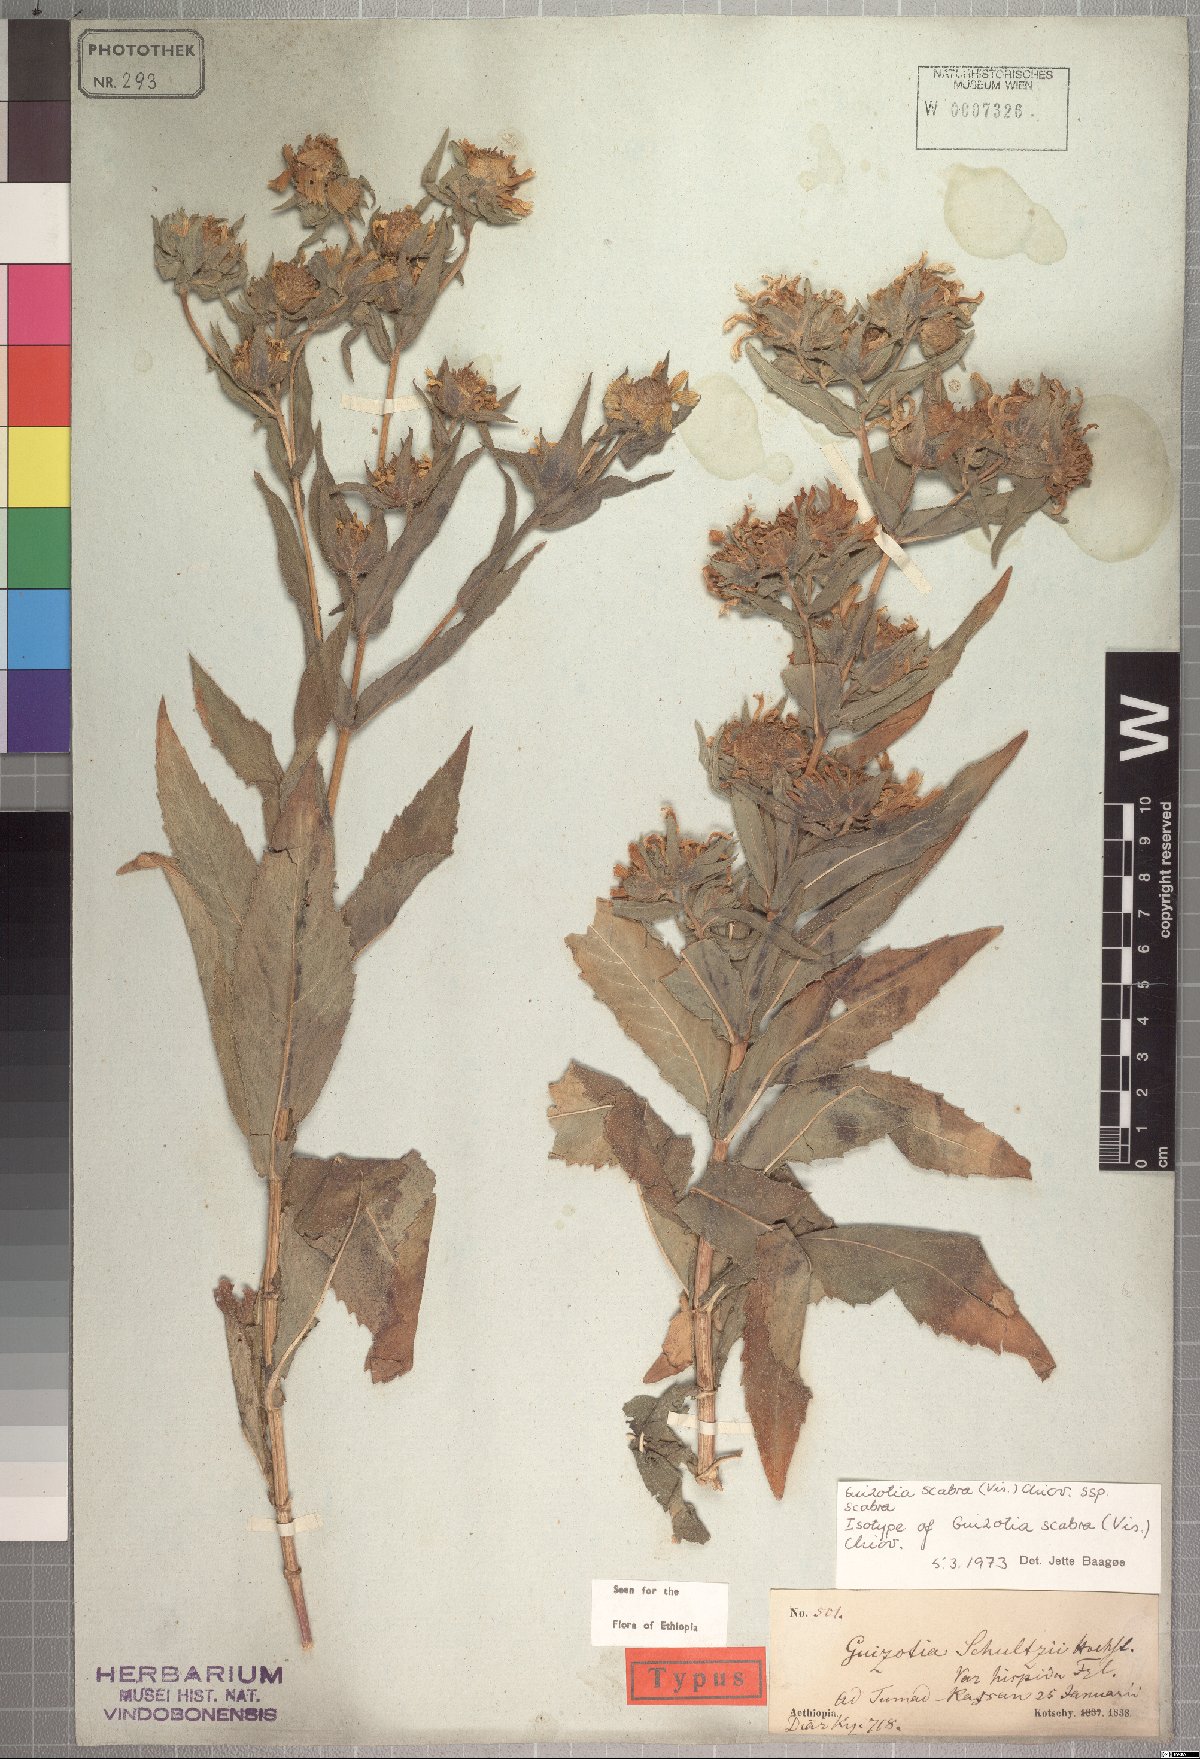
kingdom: Plantae
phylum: Tracheophyta
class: Magnoliopsida
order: Asterales
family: Asteraceae
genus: Guizotia
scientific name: Guizotia scabra
